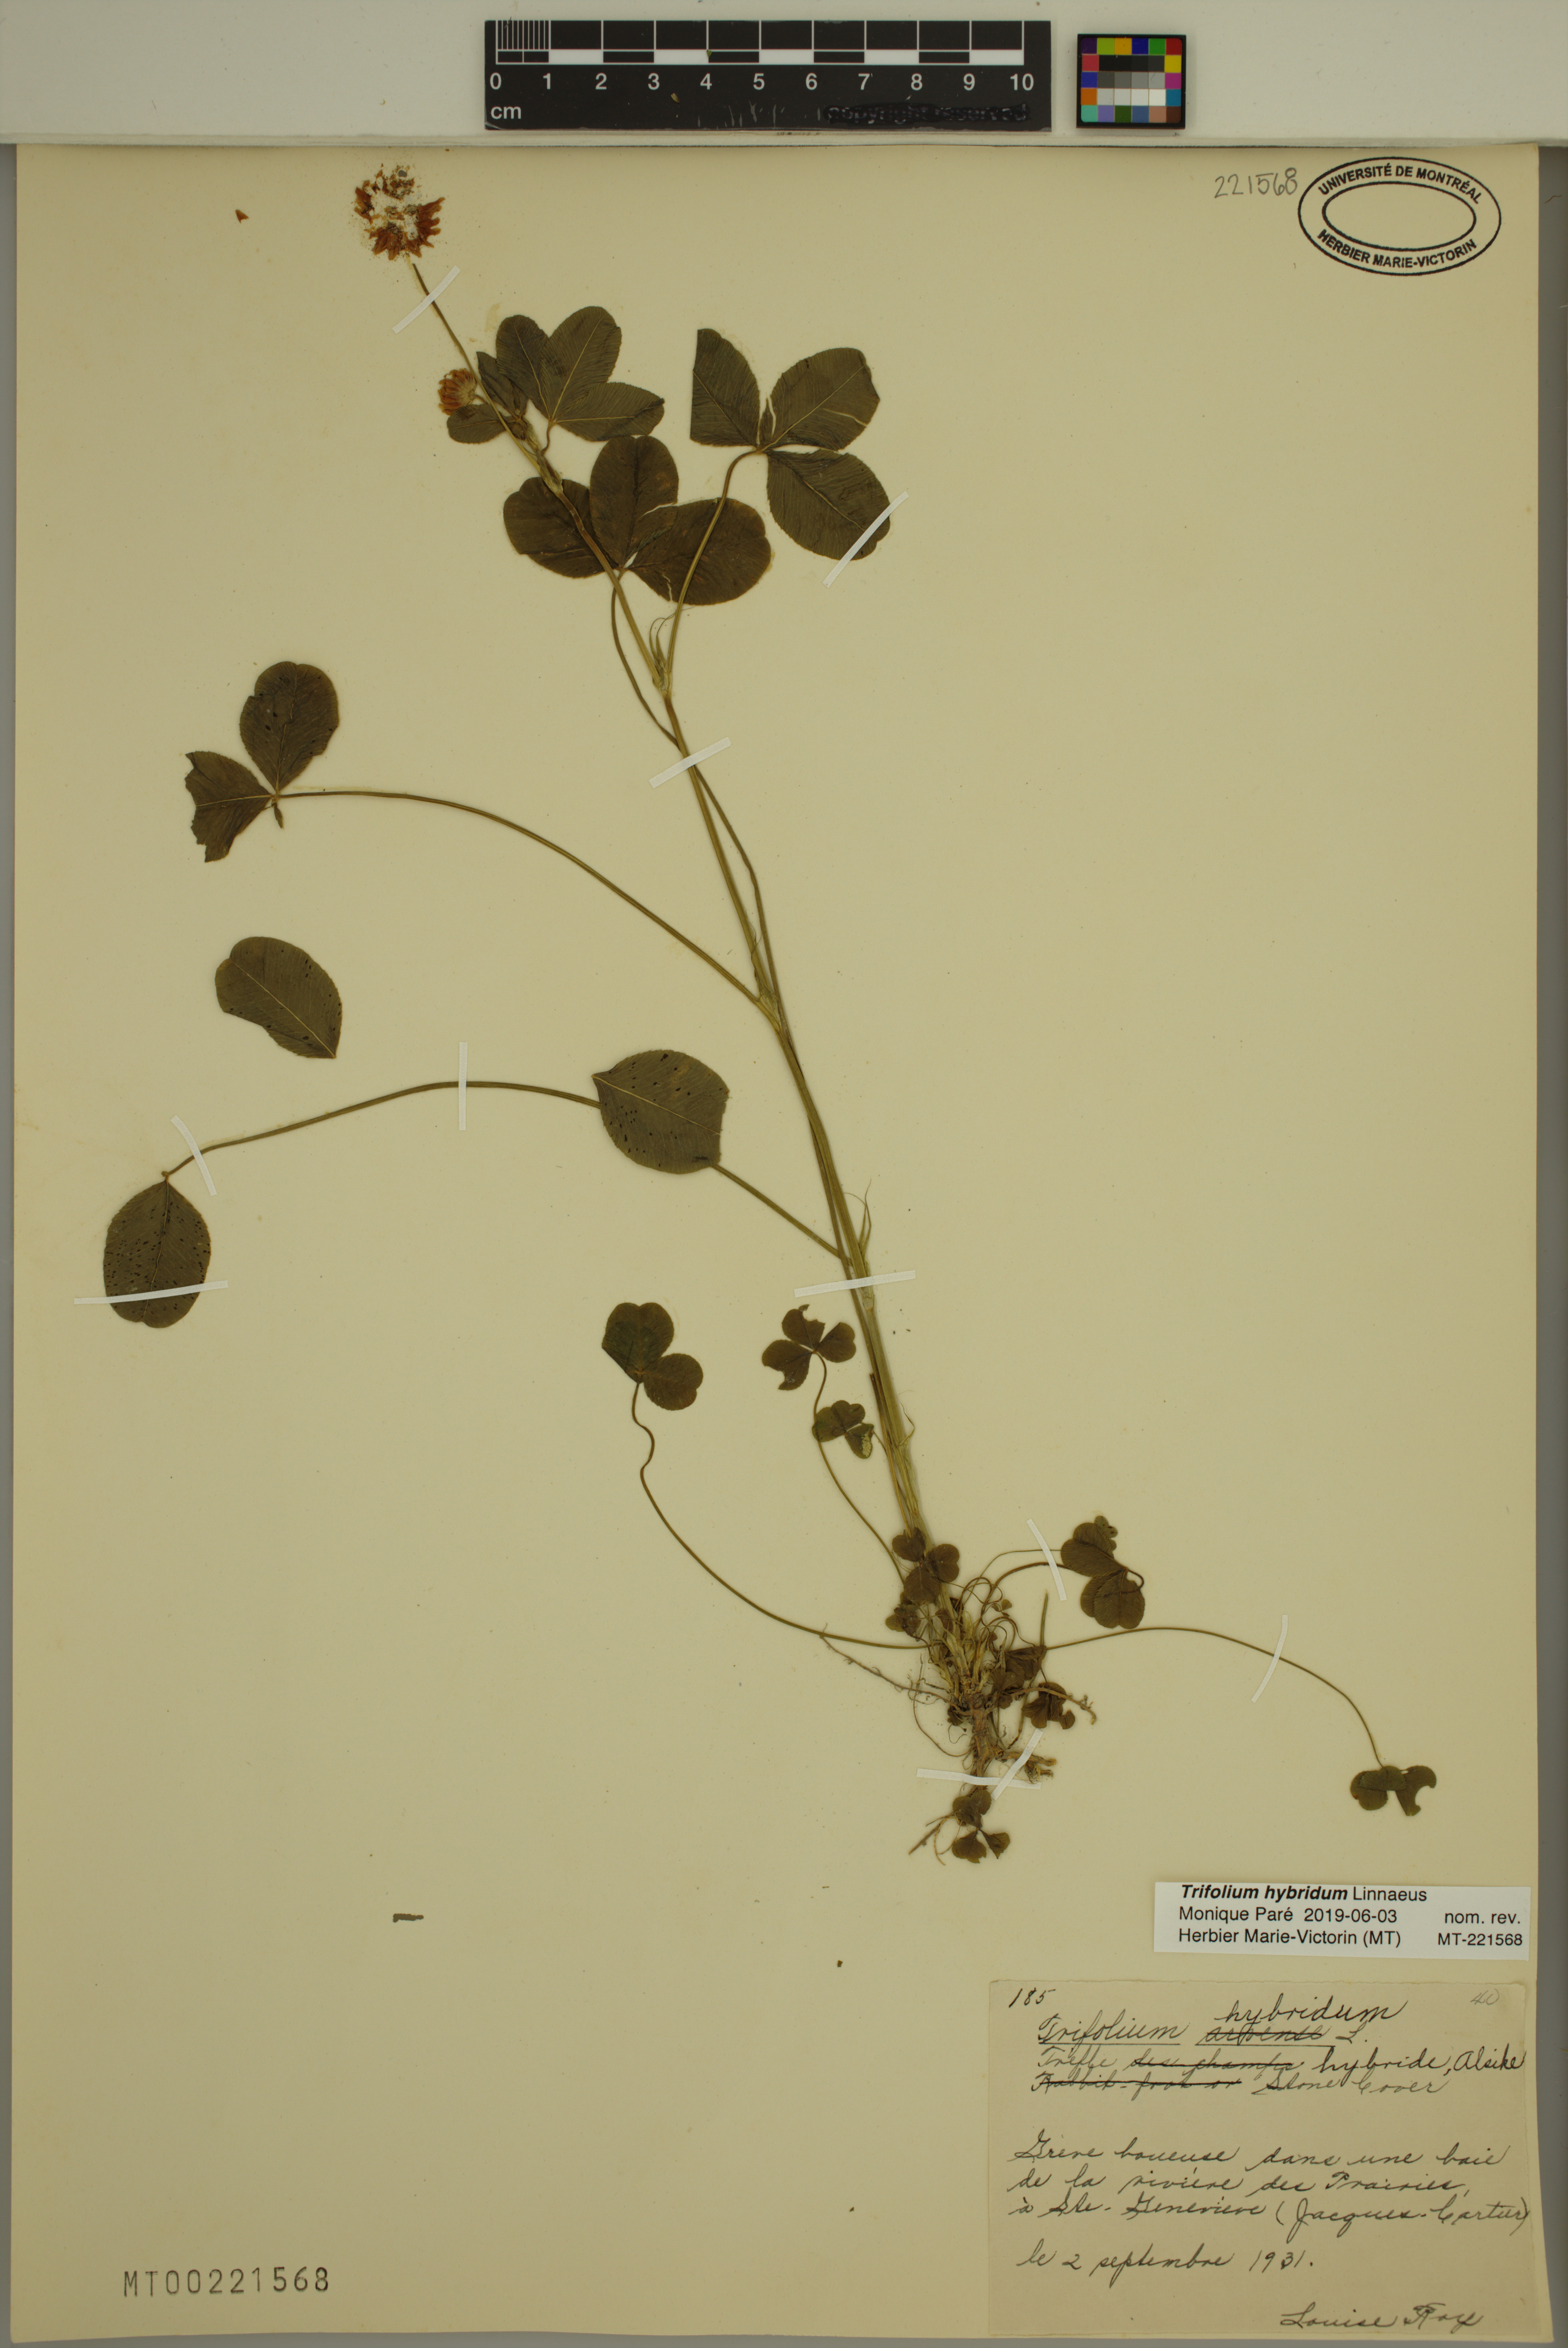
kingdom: Plantae
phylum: Tracheophyta
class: Magnoliopsida
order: Fabales
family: Fabaceae
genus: Trifolium
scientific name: Trifolium hybridum
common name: Alsike clover
